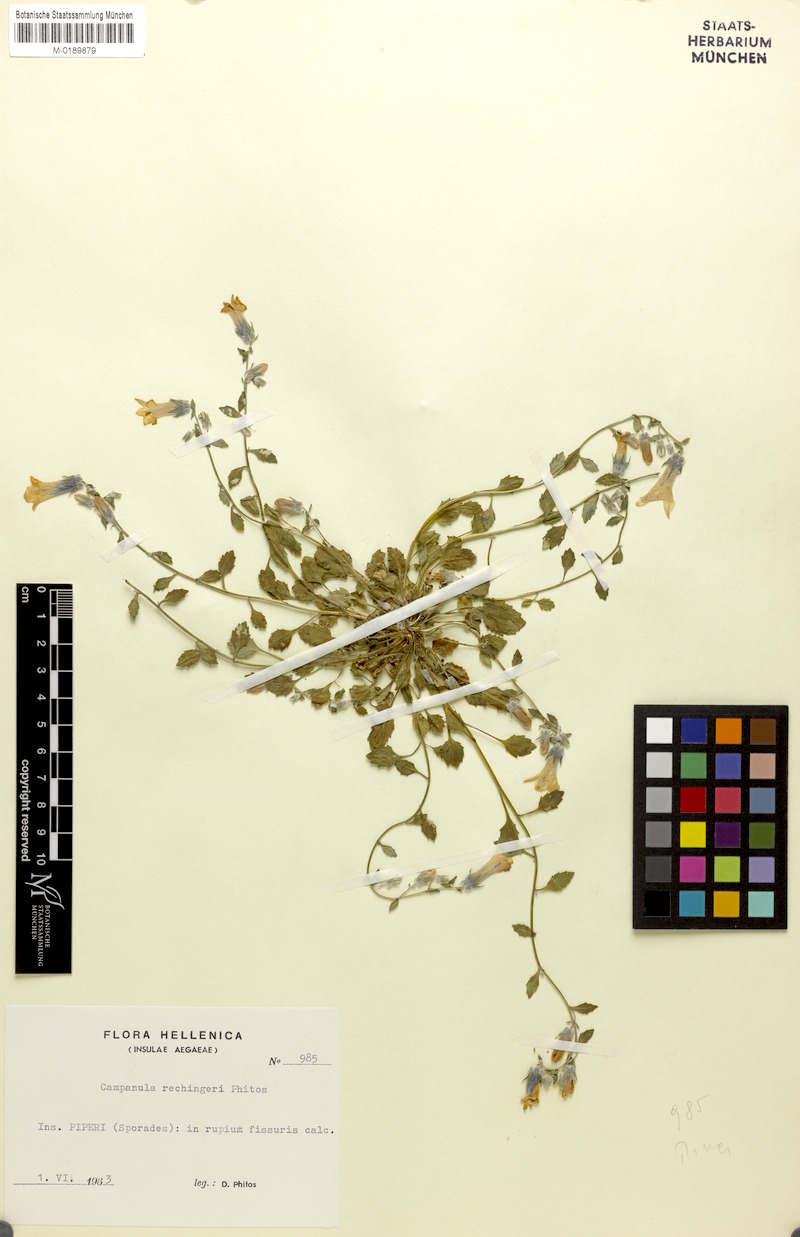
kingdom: Plantae
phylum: Tracheophyta
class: Magnoliopsida
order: Asterales
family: Campanulaceae
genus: Campanula
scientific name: Campanula rechingeri
